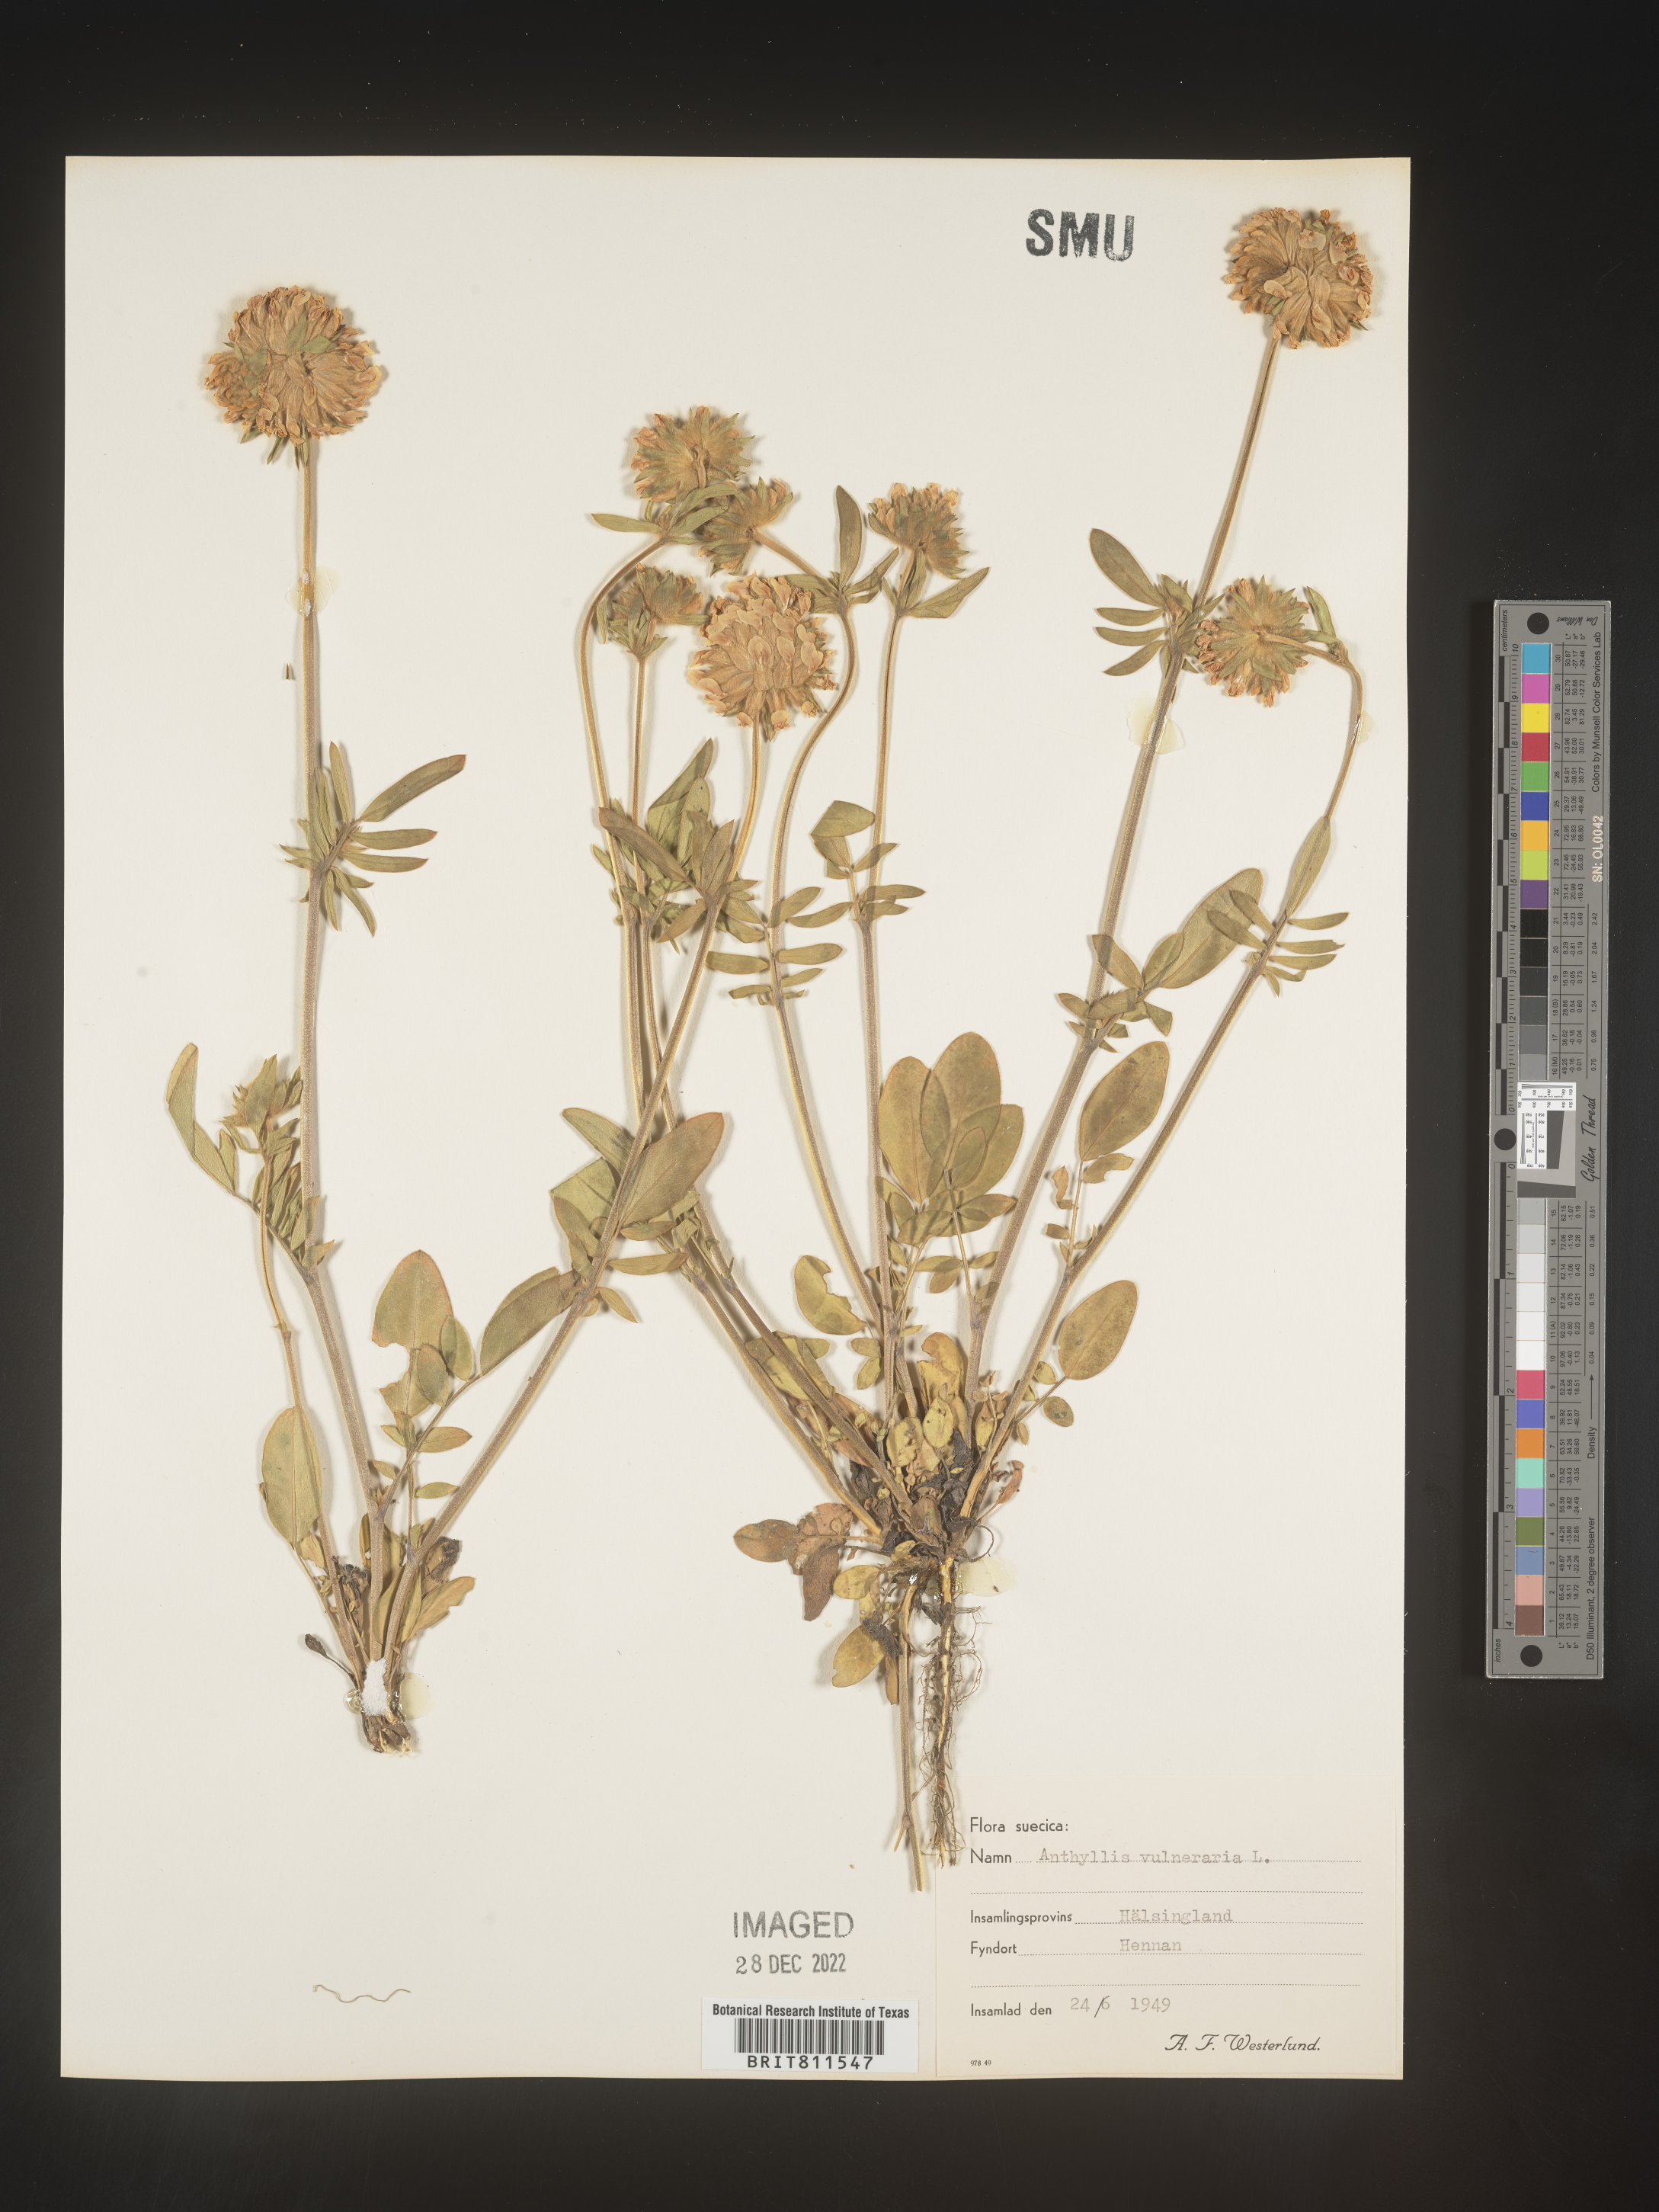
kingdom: Plantae
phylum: Tracheophyta
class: Magnoliopsida
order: Fabales
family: Fabaceae
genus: Anthyllis
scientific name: Anthyllis vulneraria
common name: Kidney vetch
